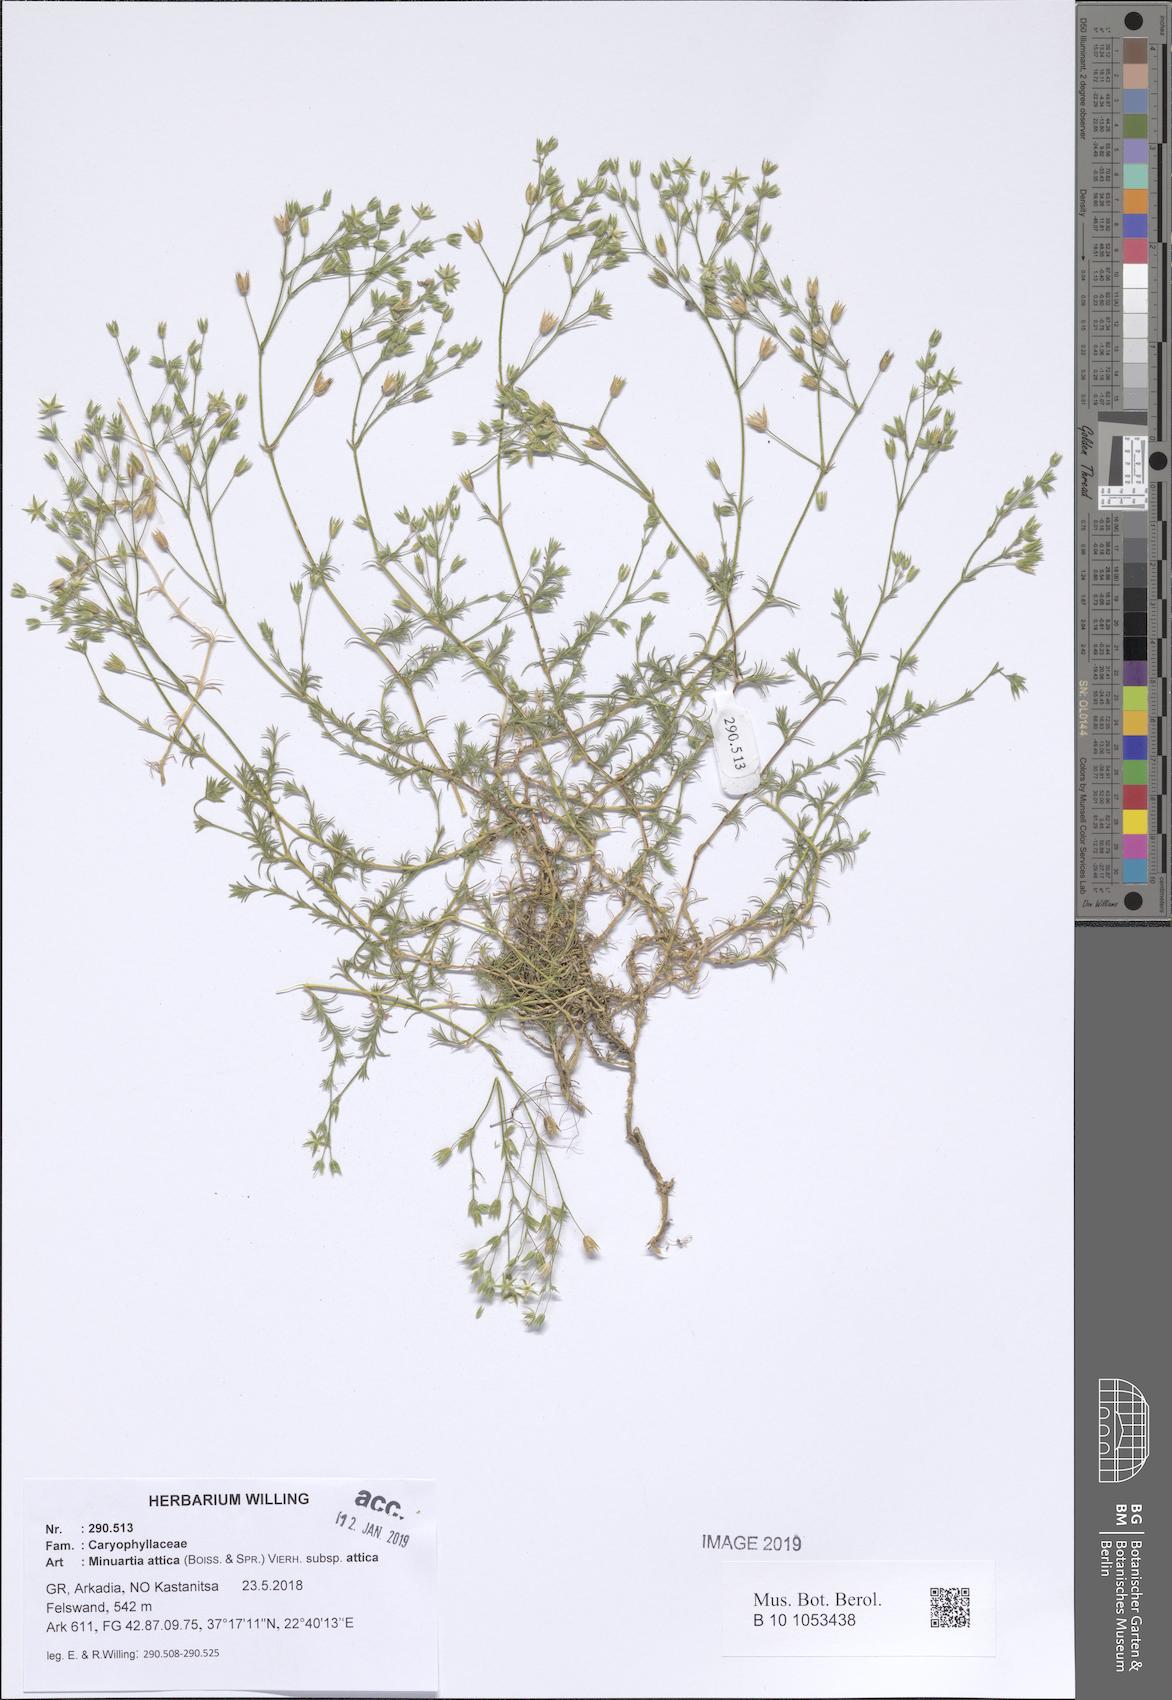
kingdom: Plantae
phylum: Tracheophyta
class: Magnoliopsida
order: Caryophyllales
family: Caryophyllaceae
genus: Sabulina
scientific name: Sabulina attica
